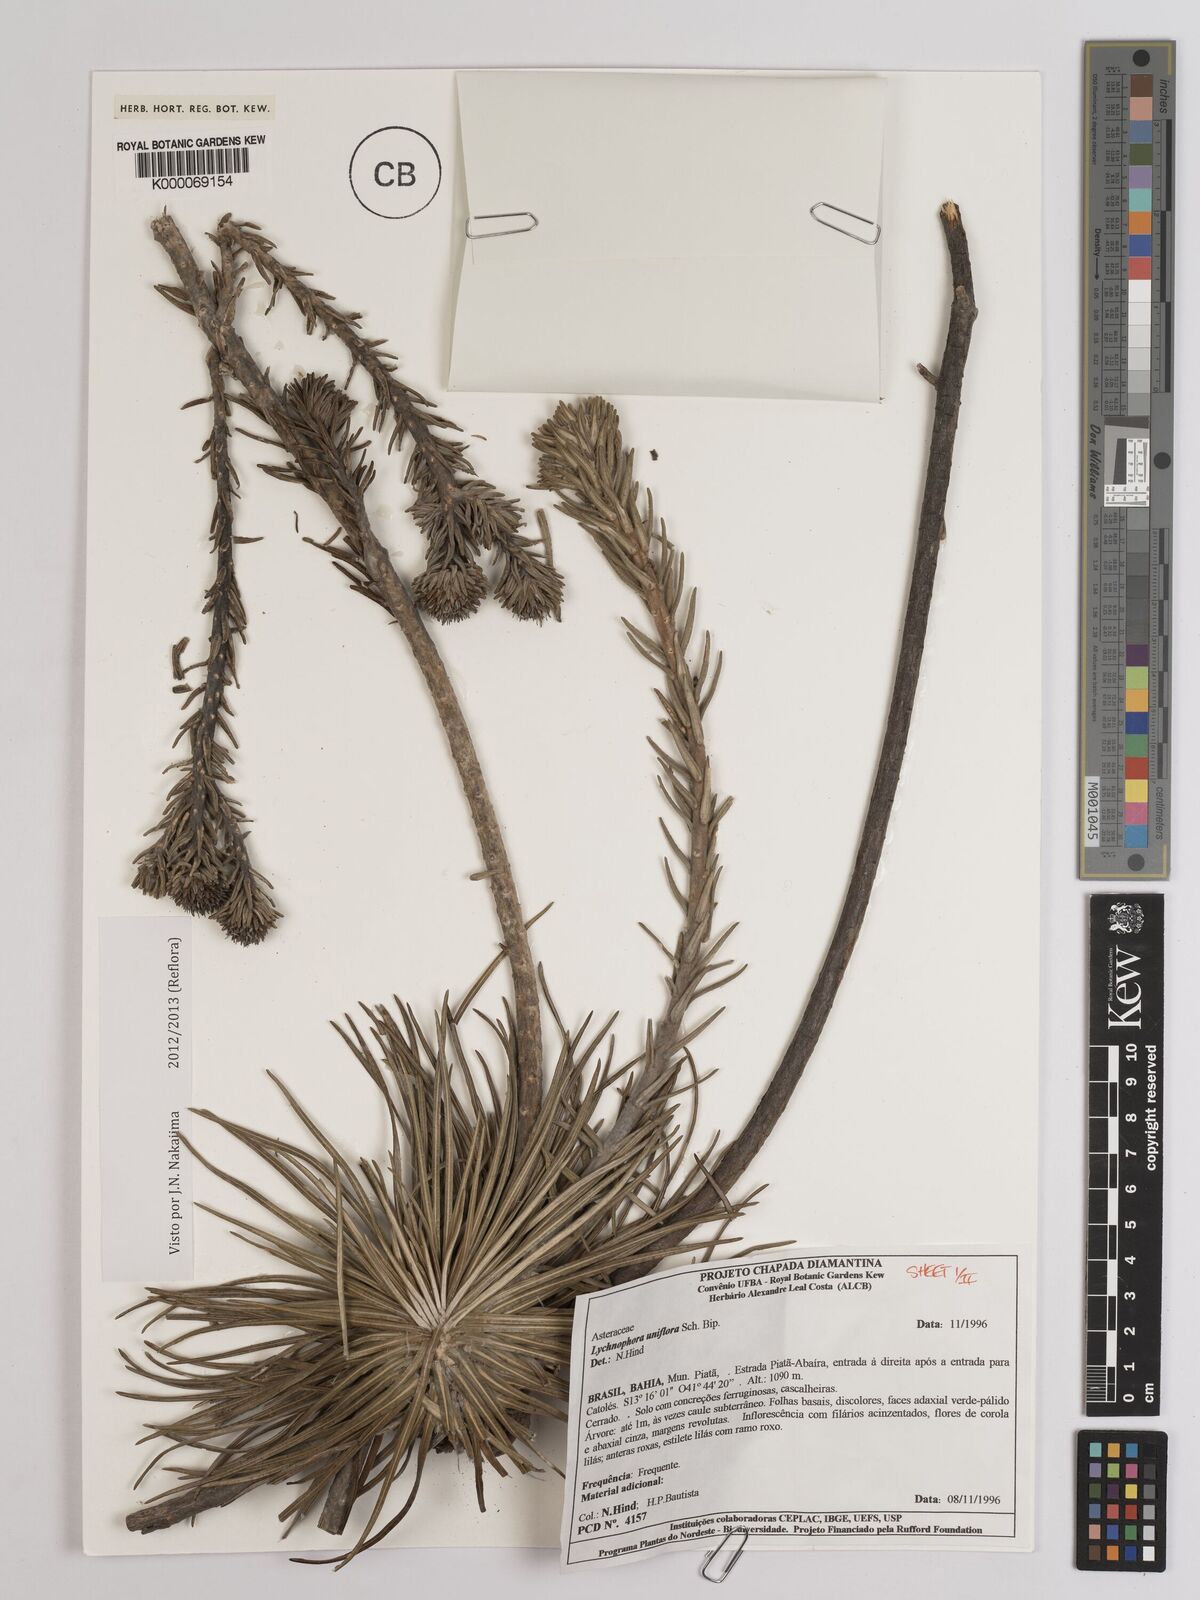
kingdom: Plantae
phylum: Tracheophyta
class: Magnoliopsida
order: Asterales
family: Asteraceae
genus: Lychnophora
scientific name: Lychnophora uniflora
